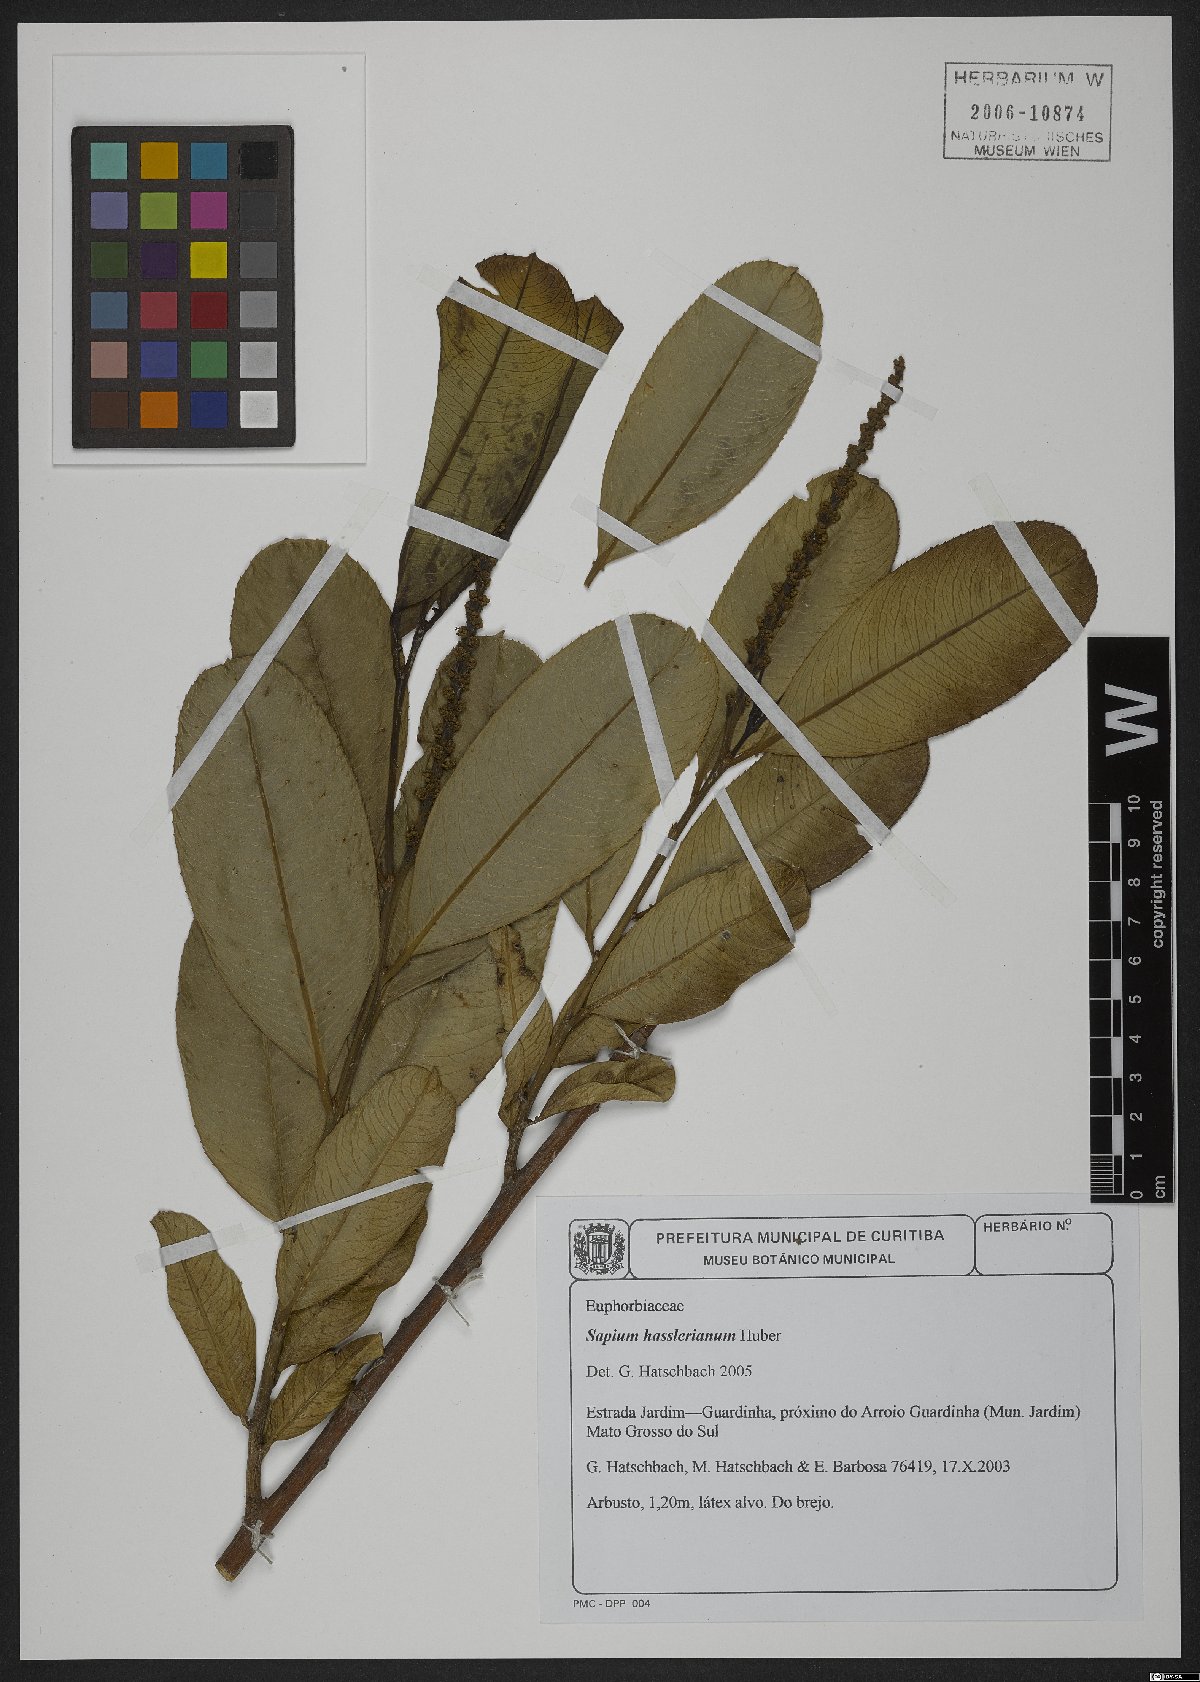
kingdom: Plantae
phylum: Tracheophyta
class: Magnoliopsida
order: Malpighiales
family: Euphorbiaceae
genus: Sapium
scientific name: Sapium obovatum
